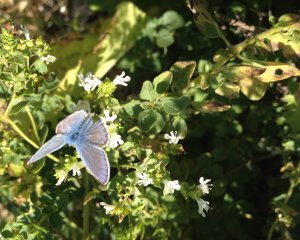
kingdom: Animalia
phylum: Arthropoda
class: Insecta
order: Lepidoptera
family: Lycaenidae
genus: Polyommatus
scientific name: Polyommatus icarus
